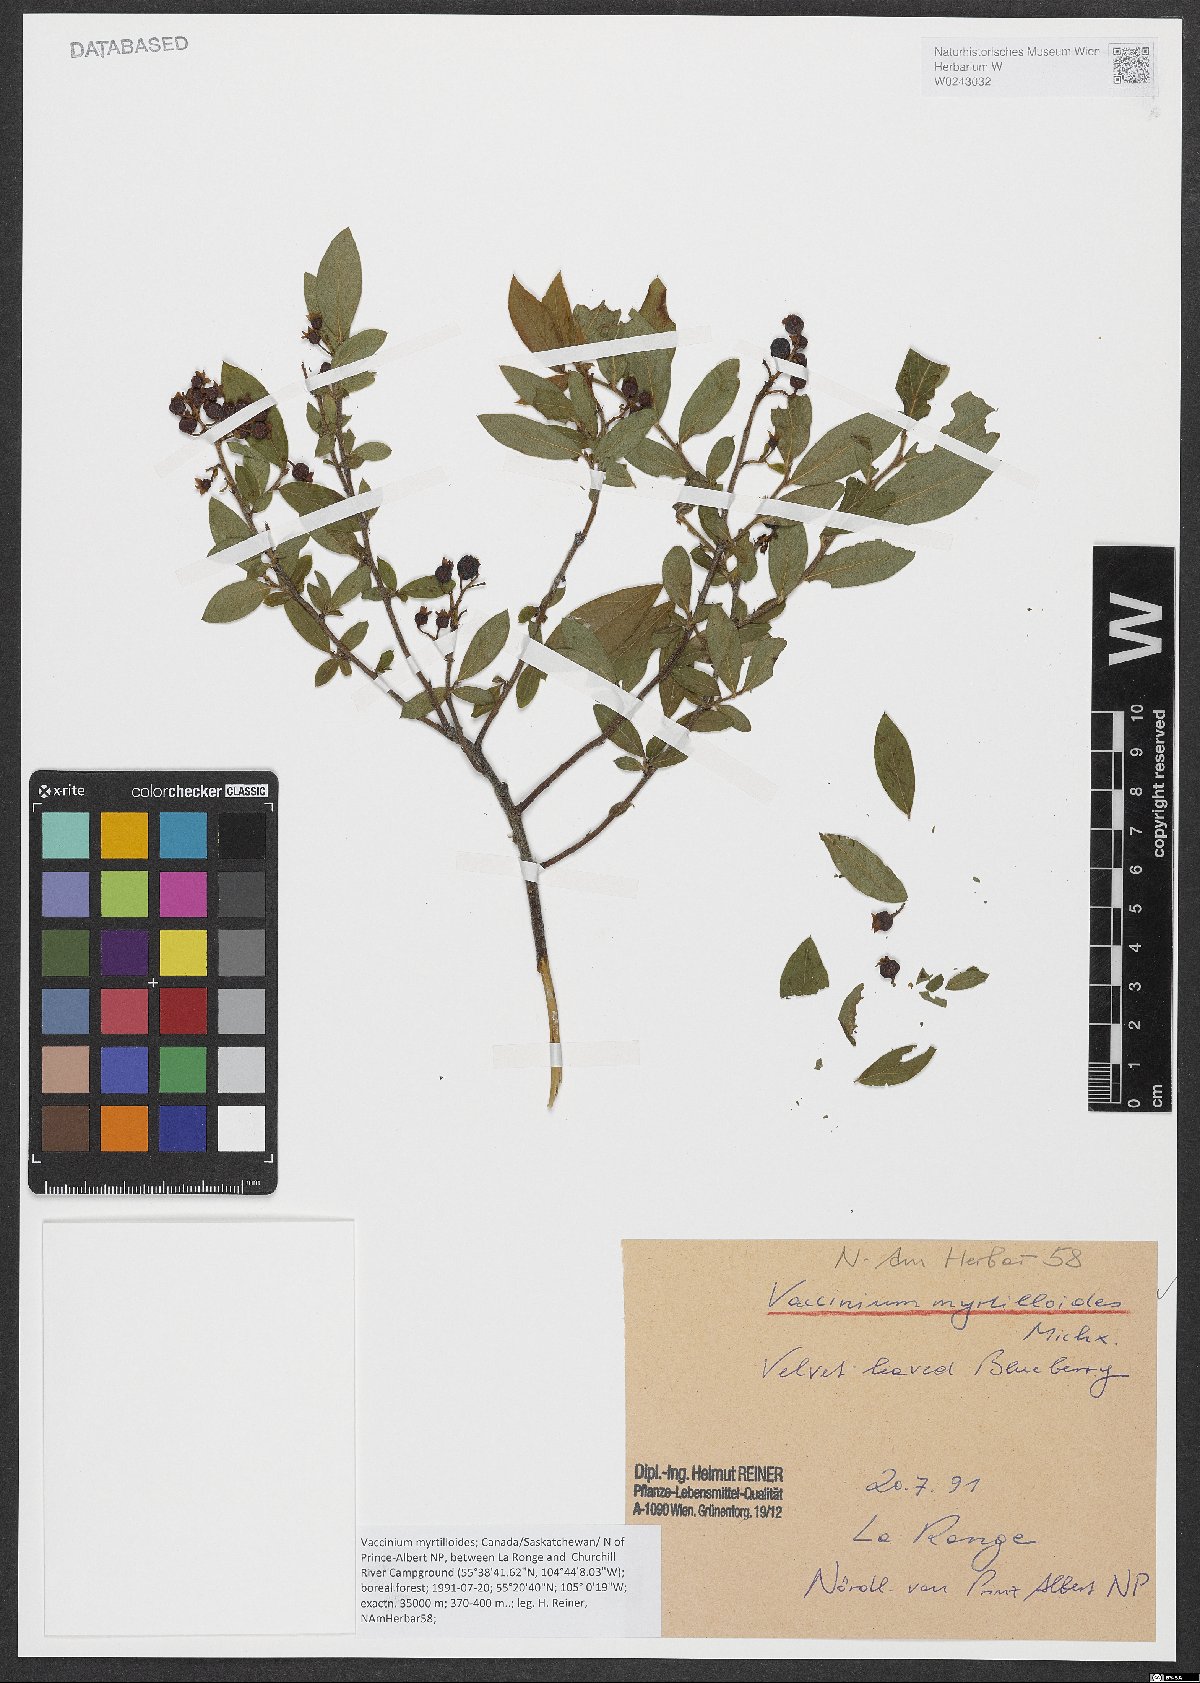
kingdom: Plantae
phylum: Tracheophyta
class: Magnoliopsida
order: Ericales
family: Ericaceae
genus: Vaccinium
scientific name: Vaccinium myrtilloides
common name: Canada blueberry
